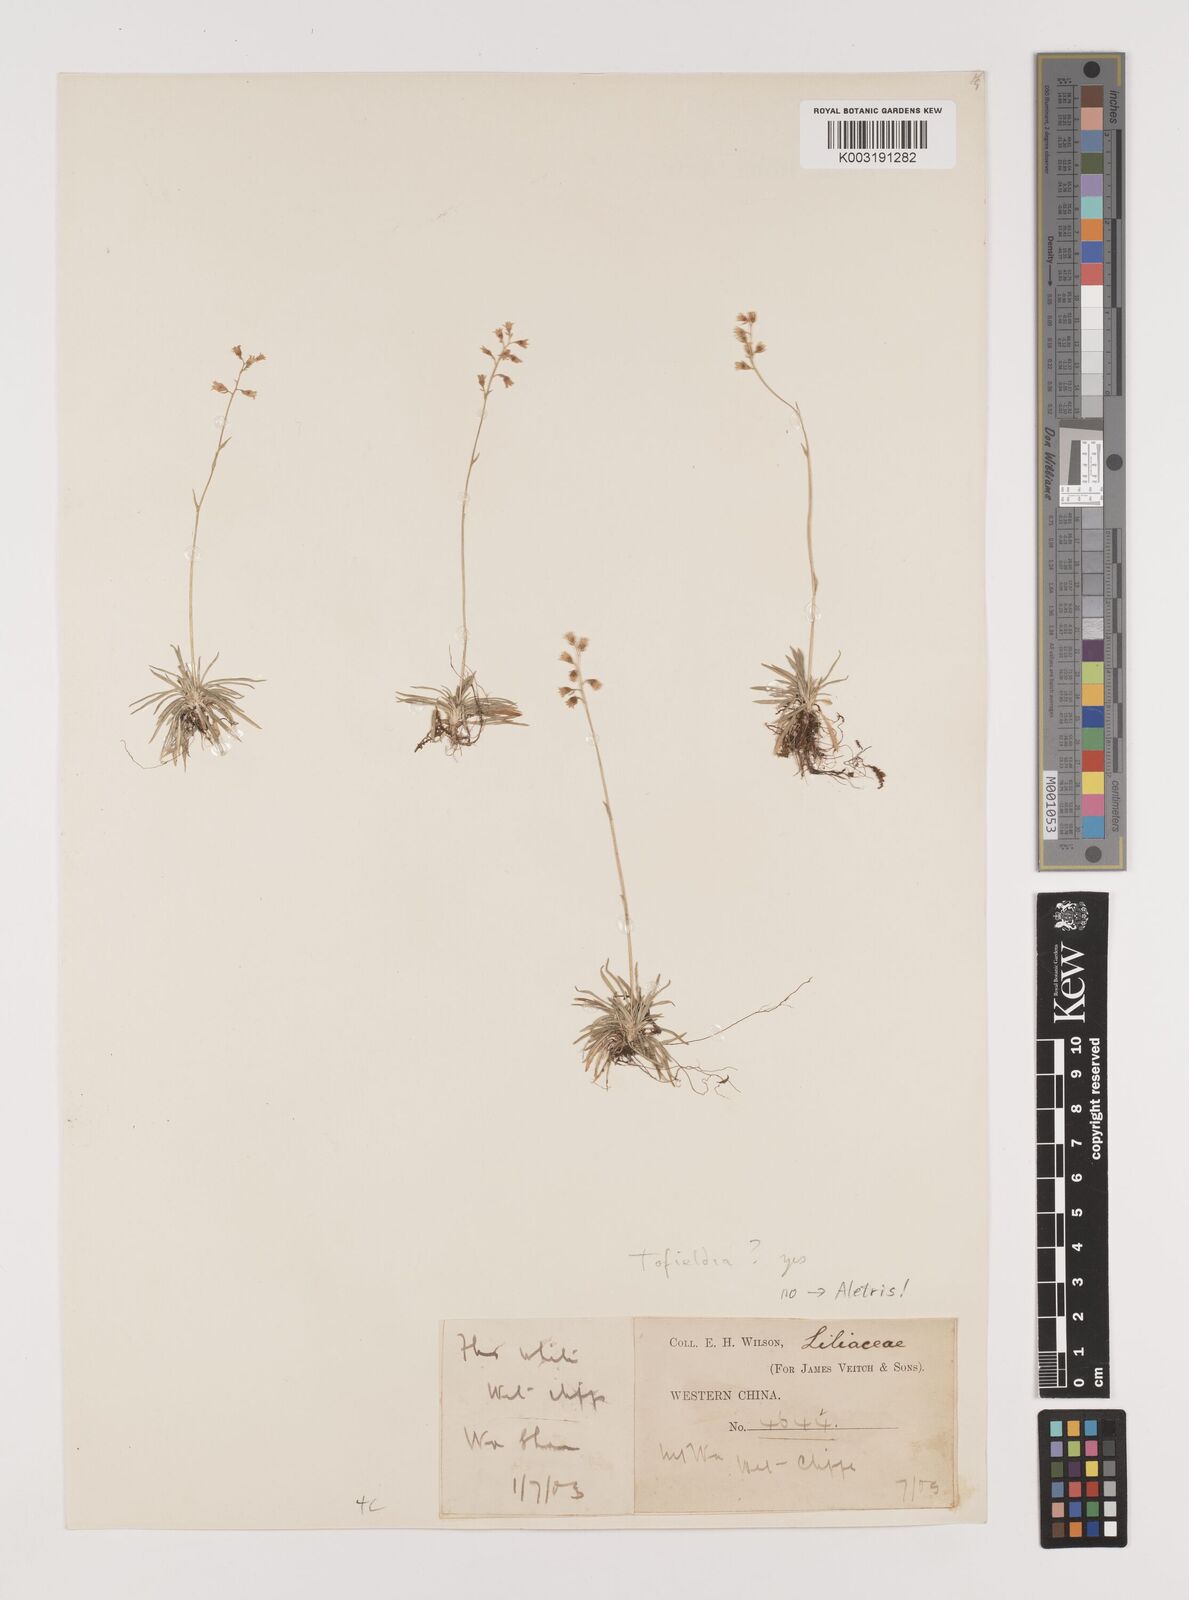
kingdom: Plantae
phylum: Tracheophyta
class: Liliopsida
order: Alismatales
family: Tofieldiaceae
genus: Tofieldia
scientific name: Tofieldia divergens
